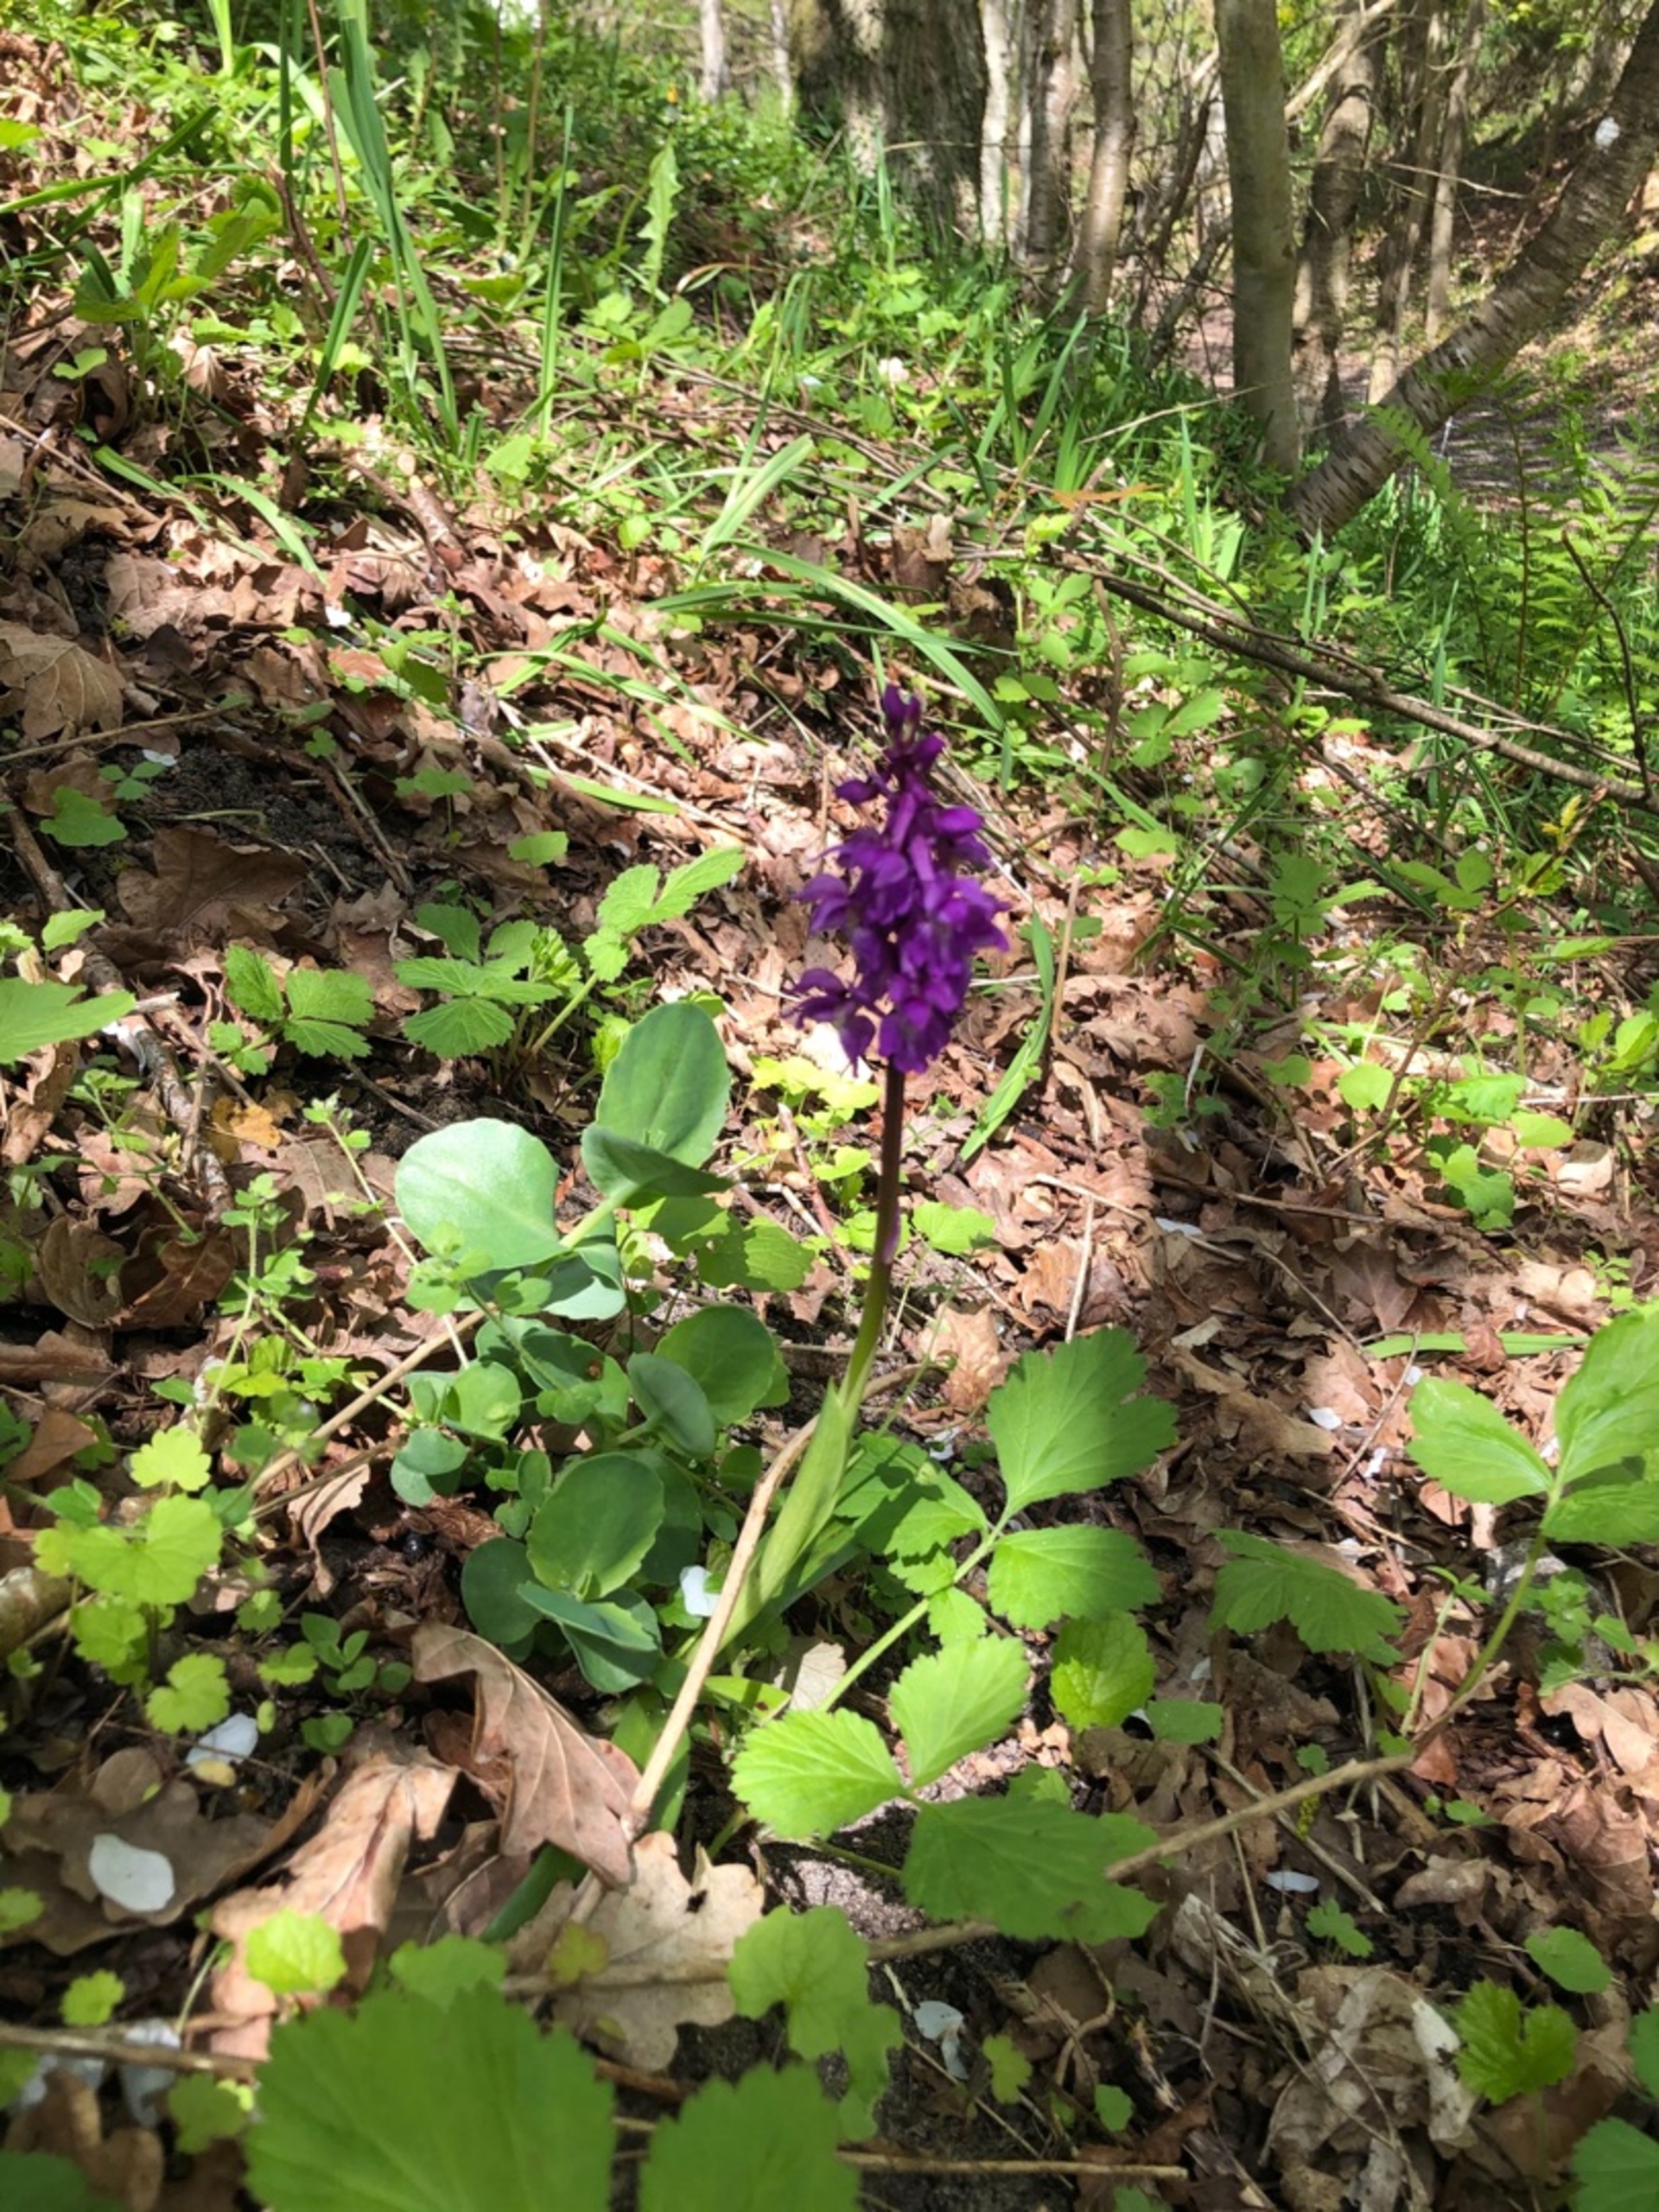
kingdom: Plantae
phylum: Tracheophyta
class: Liliopsida
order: Asparagales
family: Orchidaceae
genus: Orchis
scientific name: Orchis mascula
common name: Tyndakset gøgeurt
